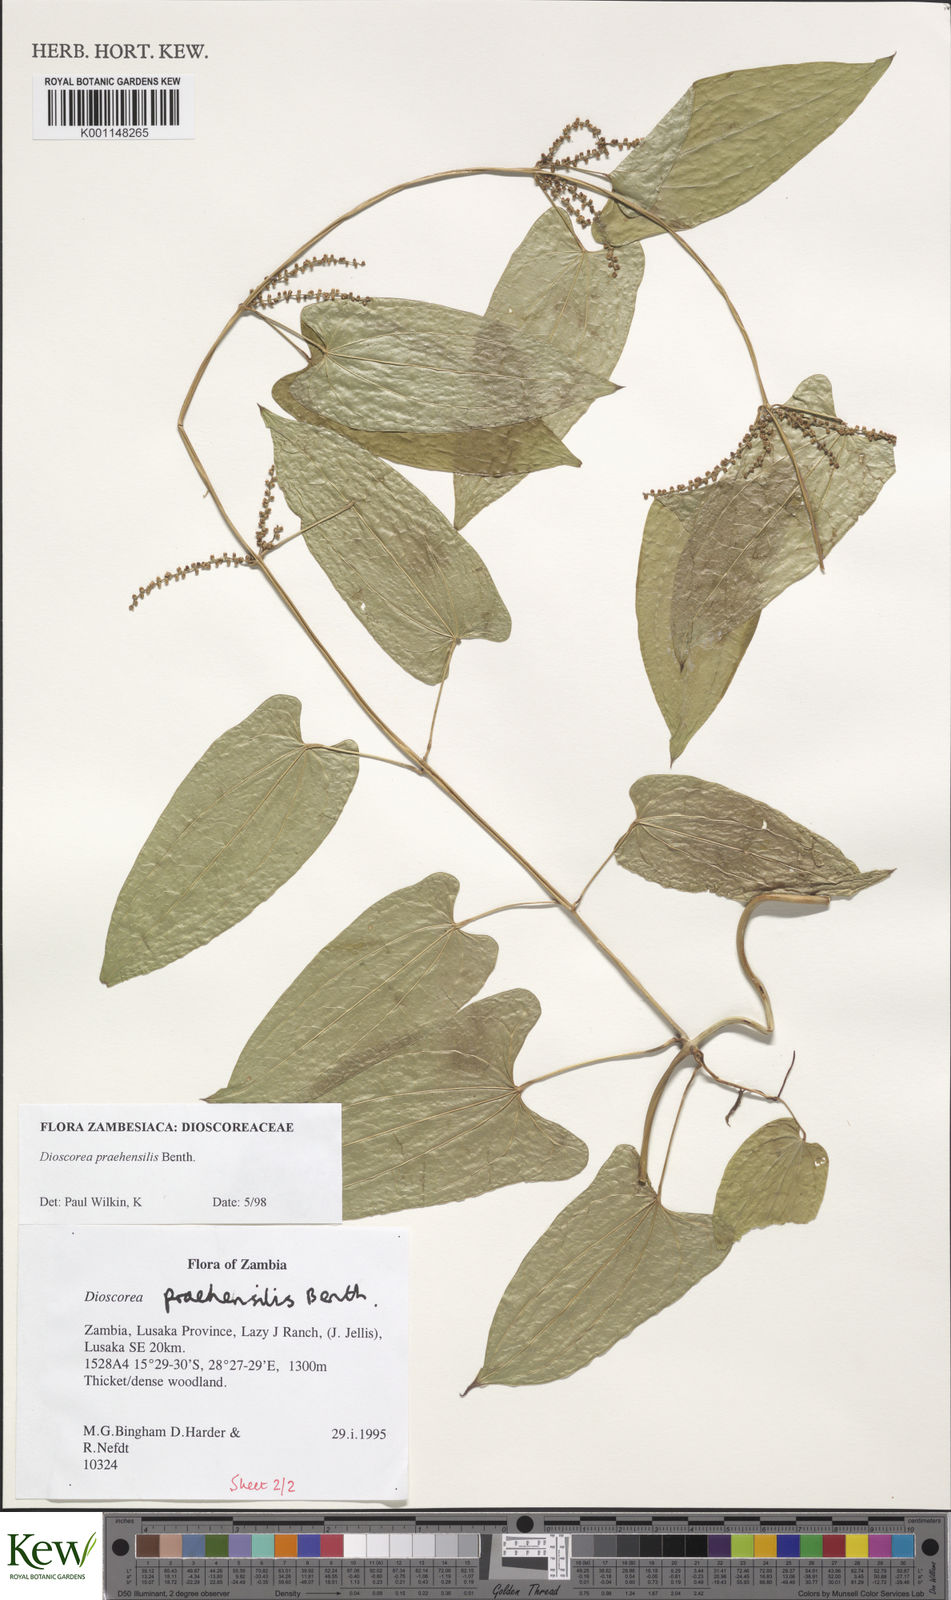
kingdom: Plantae
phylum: Tracheophyta
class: Liliopsida
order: Dioscoreales
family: Dioscoreaceae
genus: Dioscorea
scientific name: Dioscorea praehensilis
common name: Bush yam
